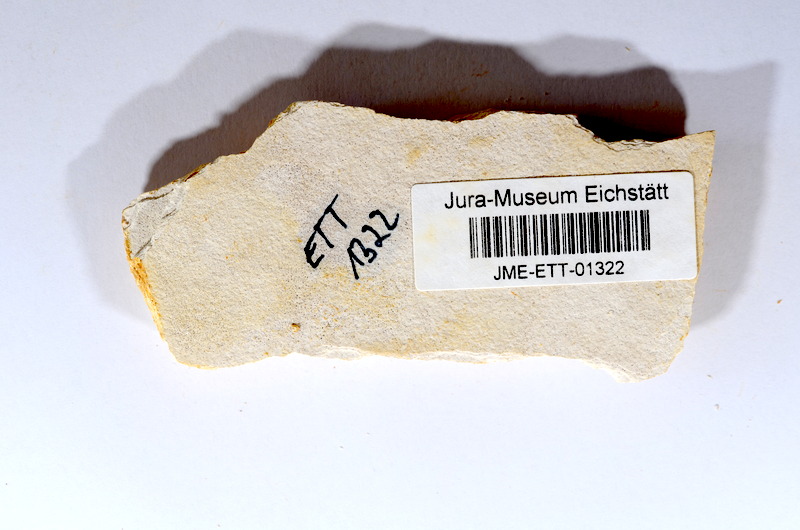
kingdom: Animalia
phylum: Chordata
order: Salmoniformes
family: Orthogonikleithridae
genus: Orthogonikleithrus
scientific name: Orthogonikleithrus hoelli
